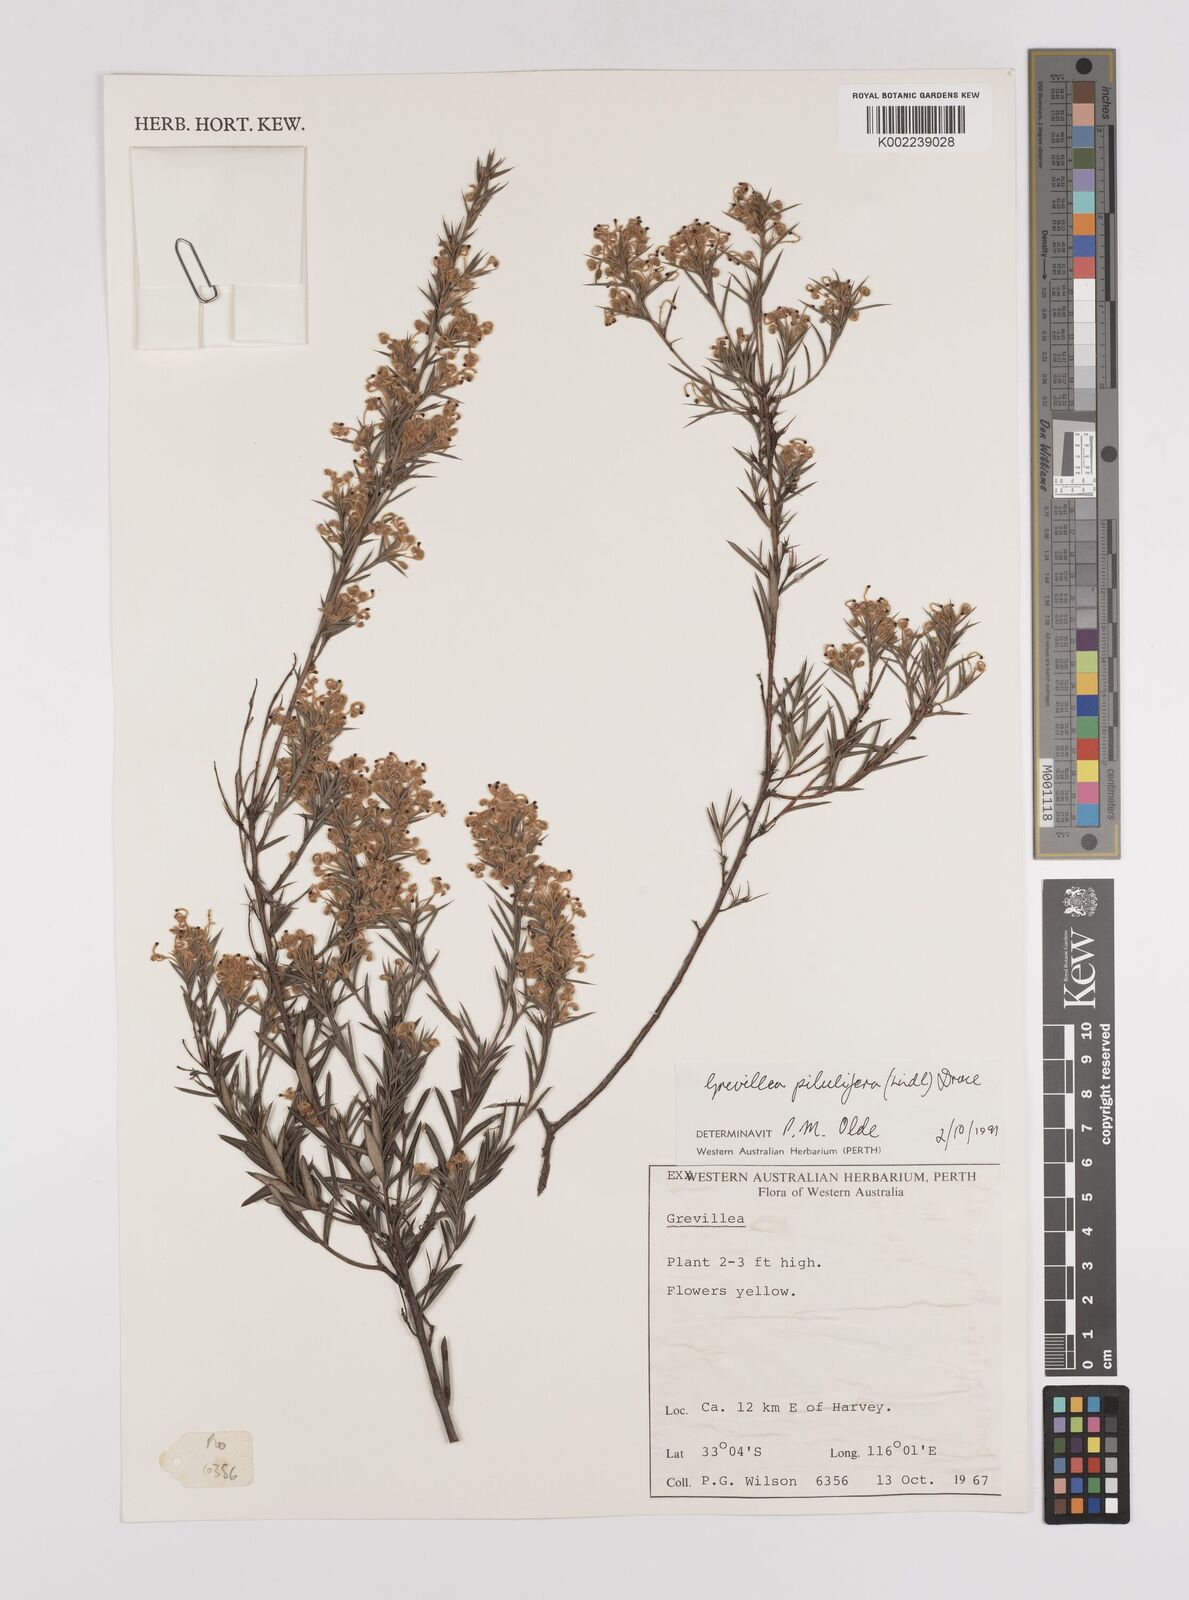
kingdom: Plantae
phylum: Tracheophyta
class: Magnoliopsida
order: Proteales
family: Proteaceae
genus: Grevillea
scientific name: Grevillea pilulifera
